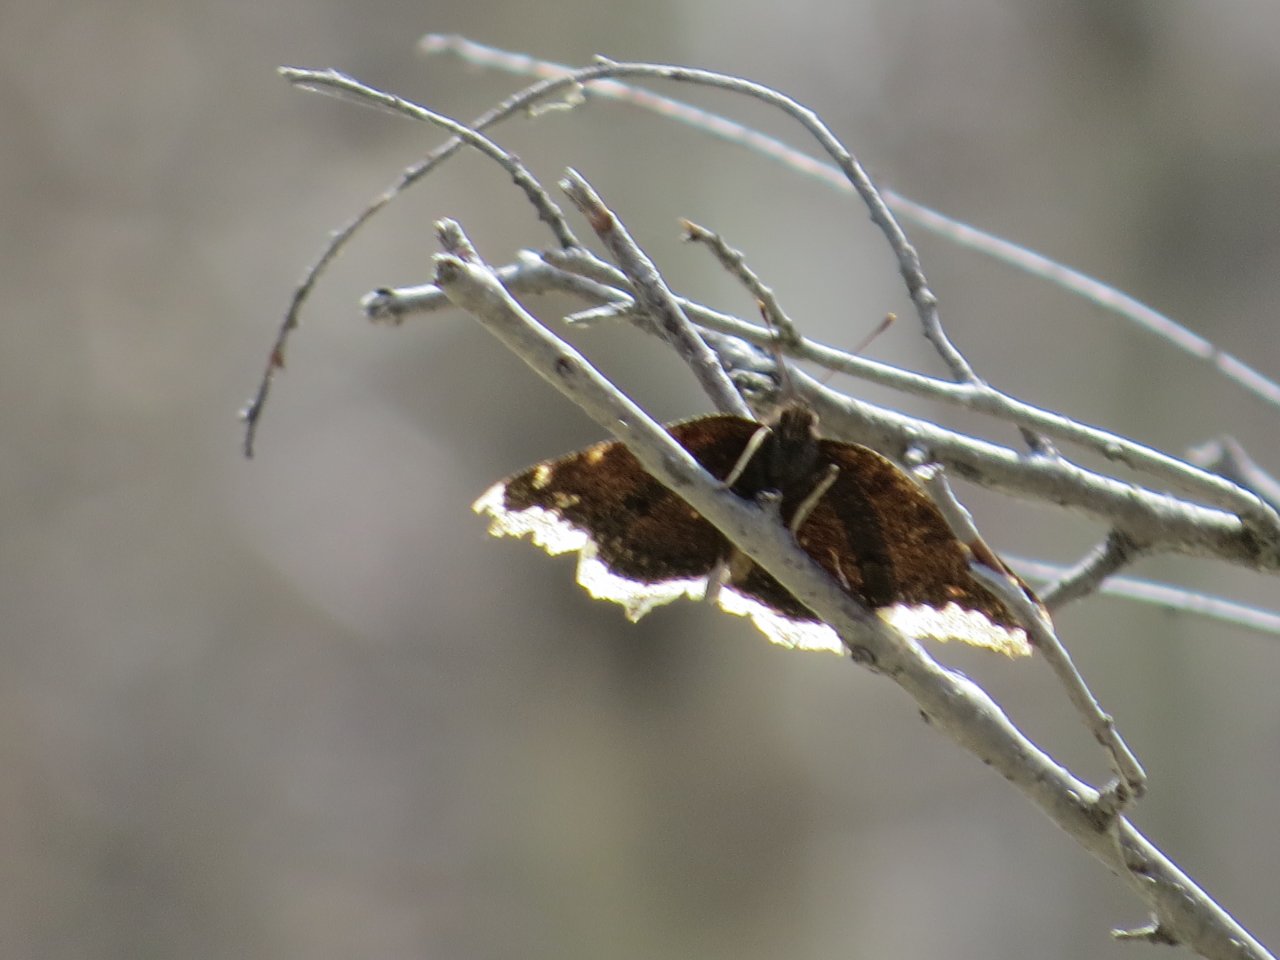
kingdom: Animalia
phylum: Arthropoda
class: Insecta
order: Lepidoptera
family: Nymphalidae
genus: Nymphalis
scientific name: Nymphalis antiopa
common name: Mourning Cloak
